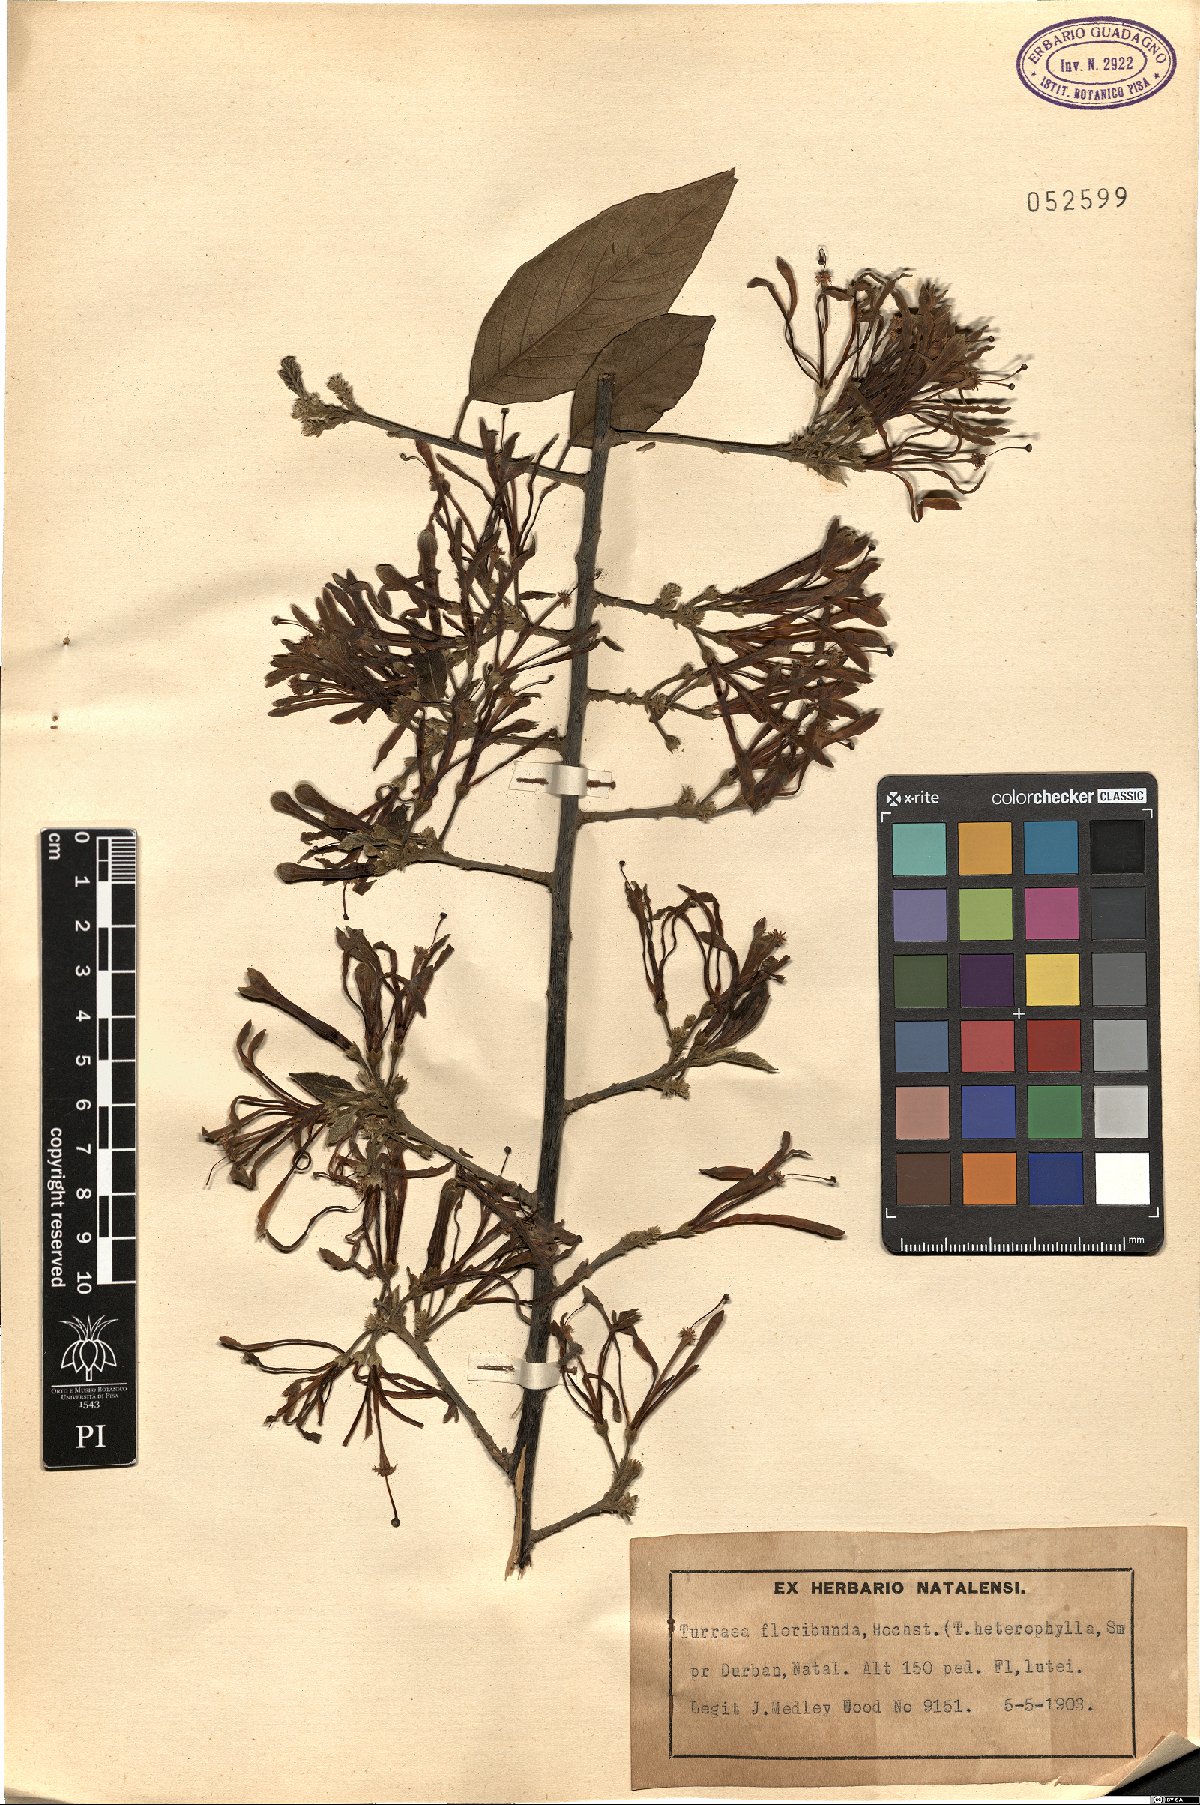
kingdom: Plantae
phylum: Tracheophyta
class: Magnoliopsida
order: Sapindales
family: Meliaceae
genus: Turraea
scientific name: Turraea floribunda
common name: Honeysuckle tree
